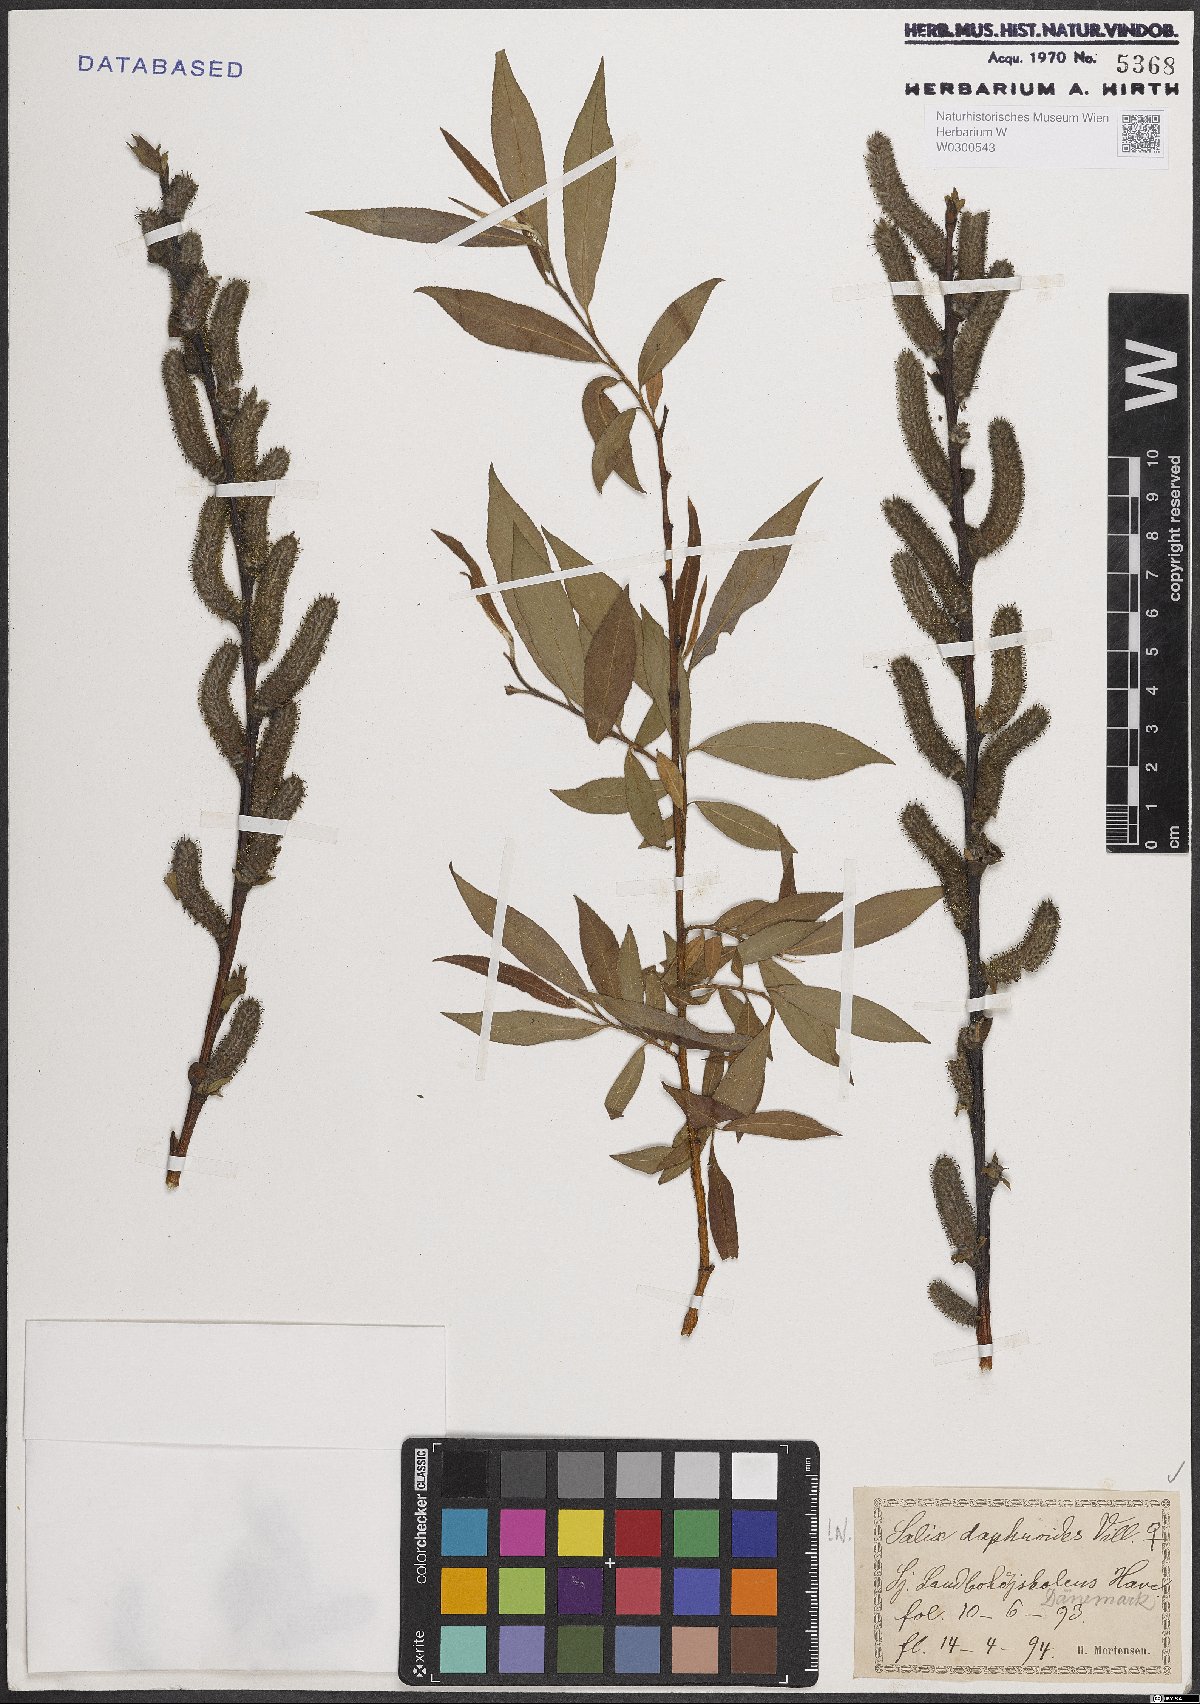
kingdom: Plantae
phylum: Tracheophyta
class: Magnoliopsida
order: Malpighiales
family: Salicaceae
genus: Salix
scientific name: Salix daphnoides
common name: European violet-willow
